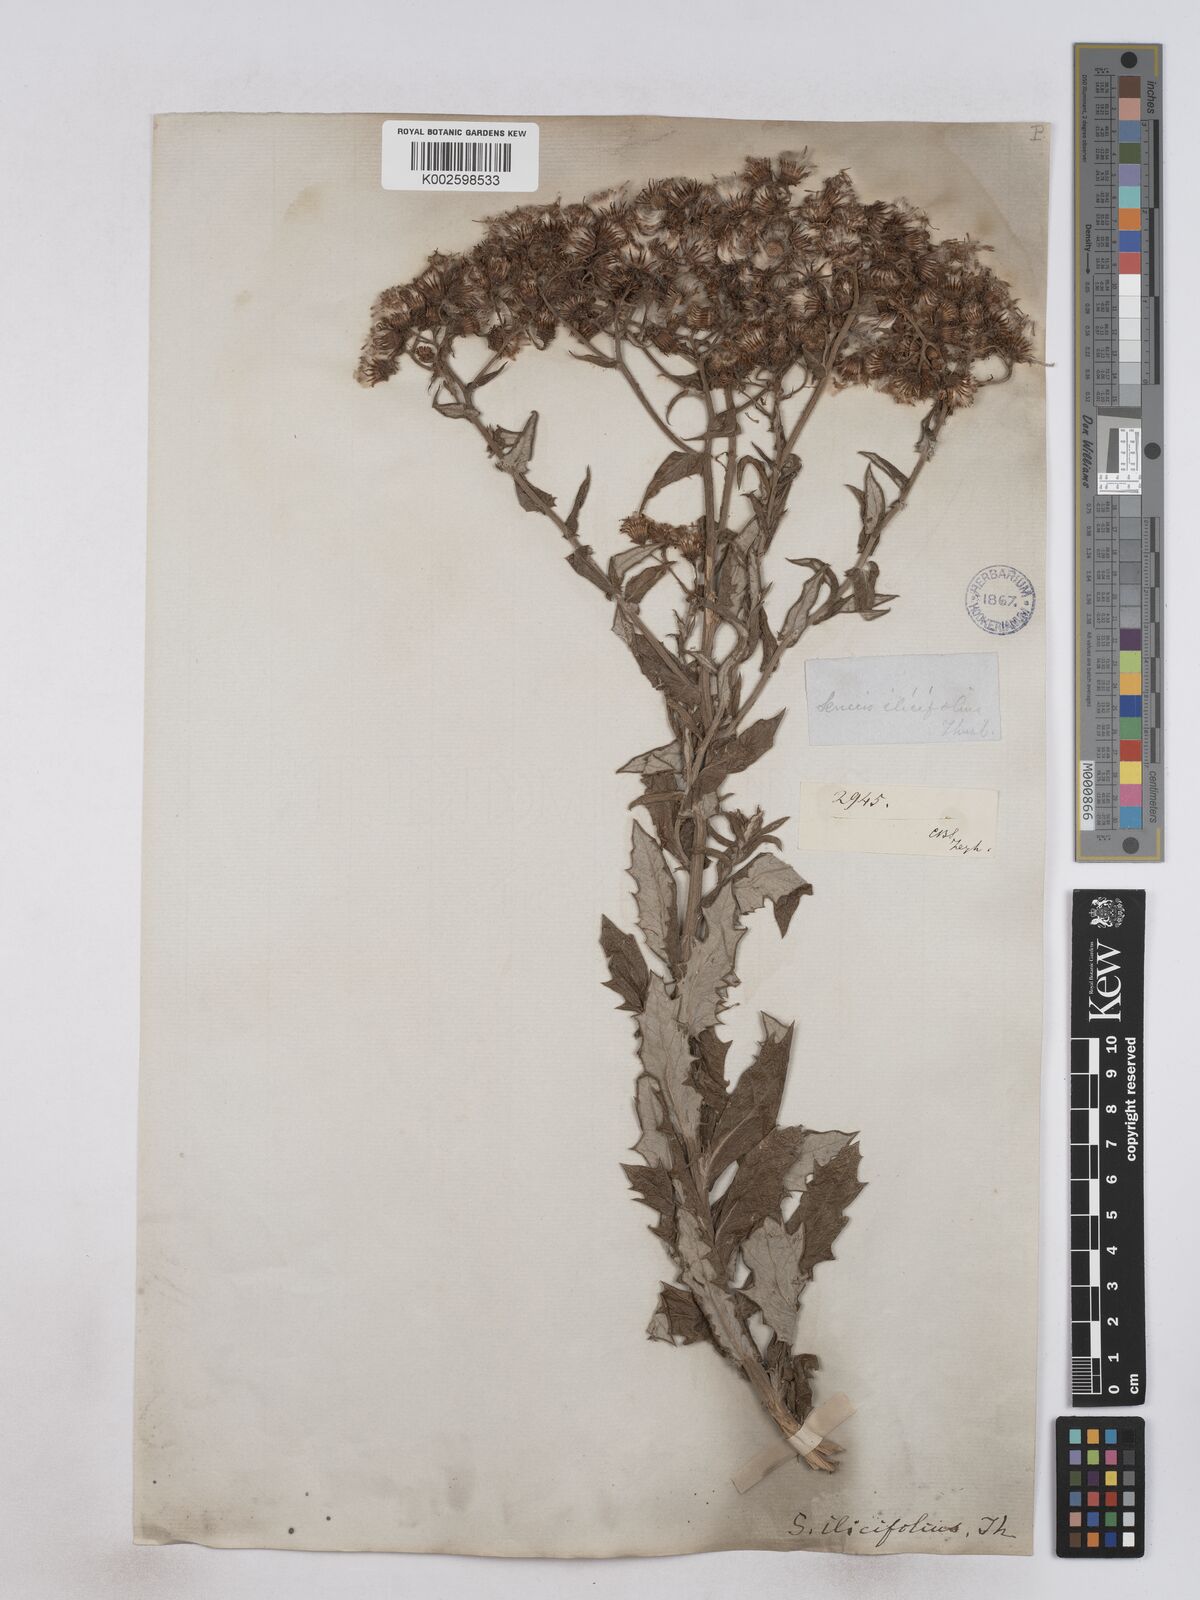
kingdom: Plantae
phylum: Tracheophyta
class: Magnoliopsida
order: Asterales
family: Asteraceae
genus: Senecio
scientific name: Senecio ilicifolius
